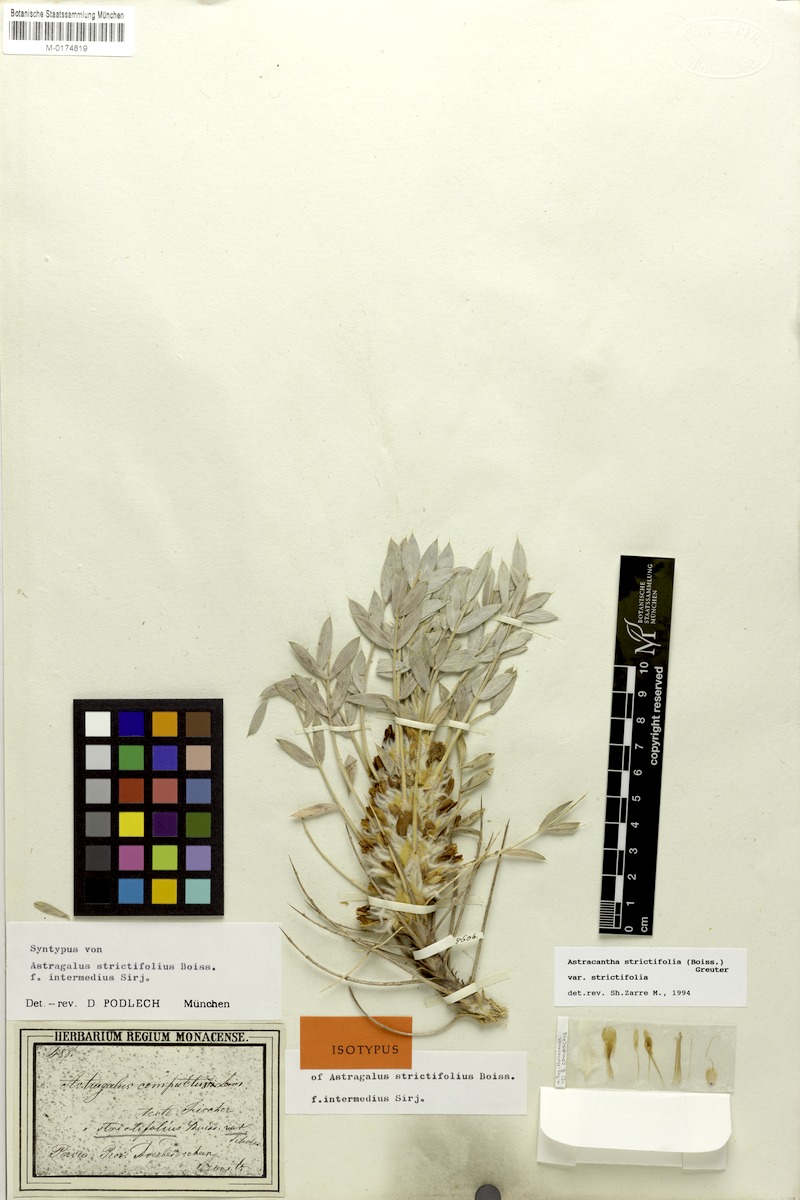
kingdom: Plantae
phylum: Tracheophyta
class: Magnoliopsida
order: Fabales
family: Fabaceae
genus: Astragalus
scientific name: Astragalus compactus
